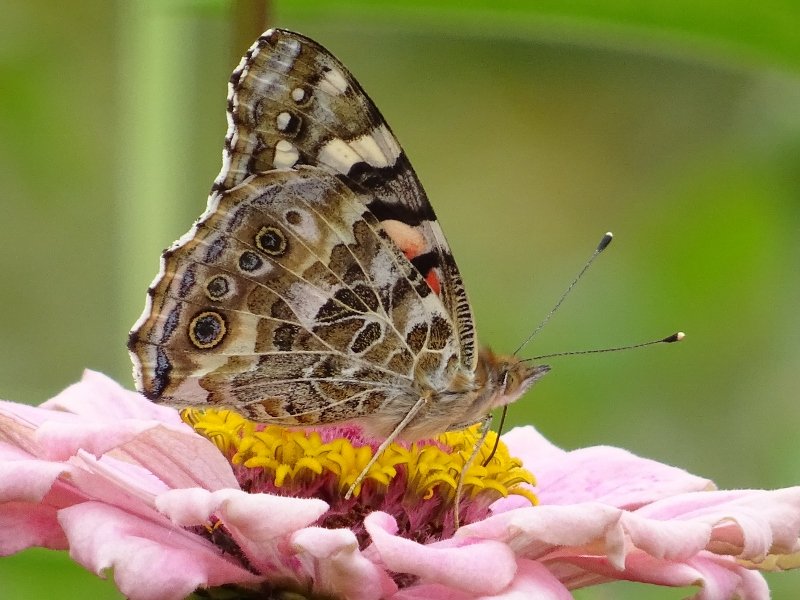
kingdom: Animalia
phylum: Arthropoda
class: Insecta
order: Lepidoptera
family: Nymphalidae
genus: Vanessa
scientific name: Vanessa cardui
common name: Painted Lady
